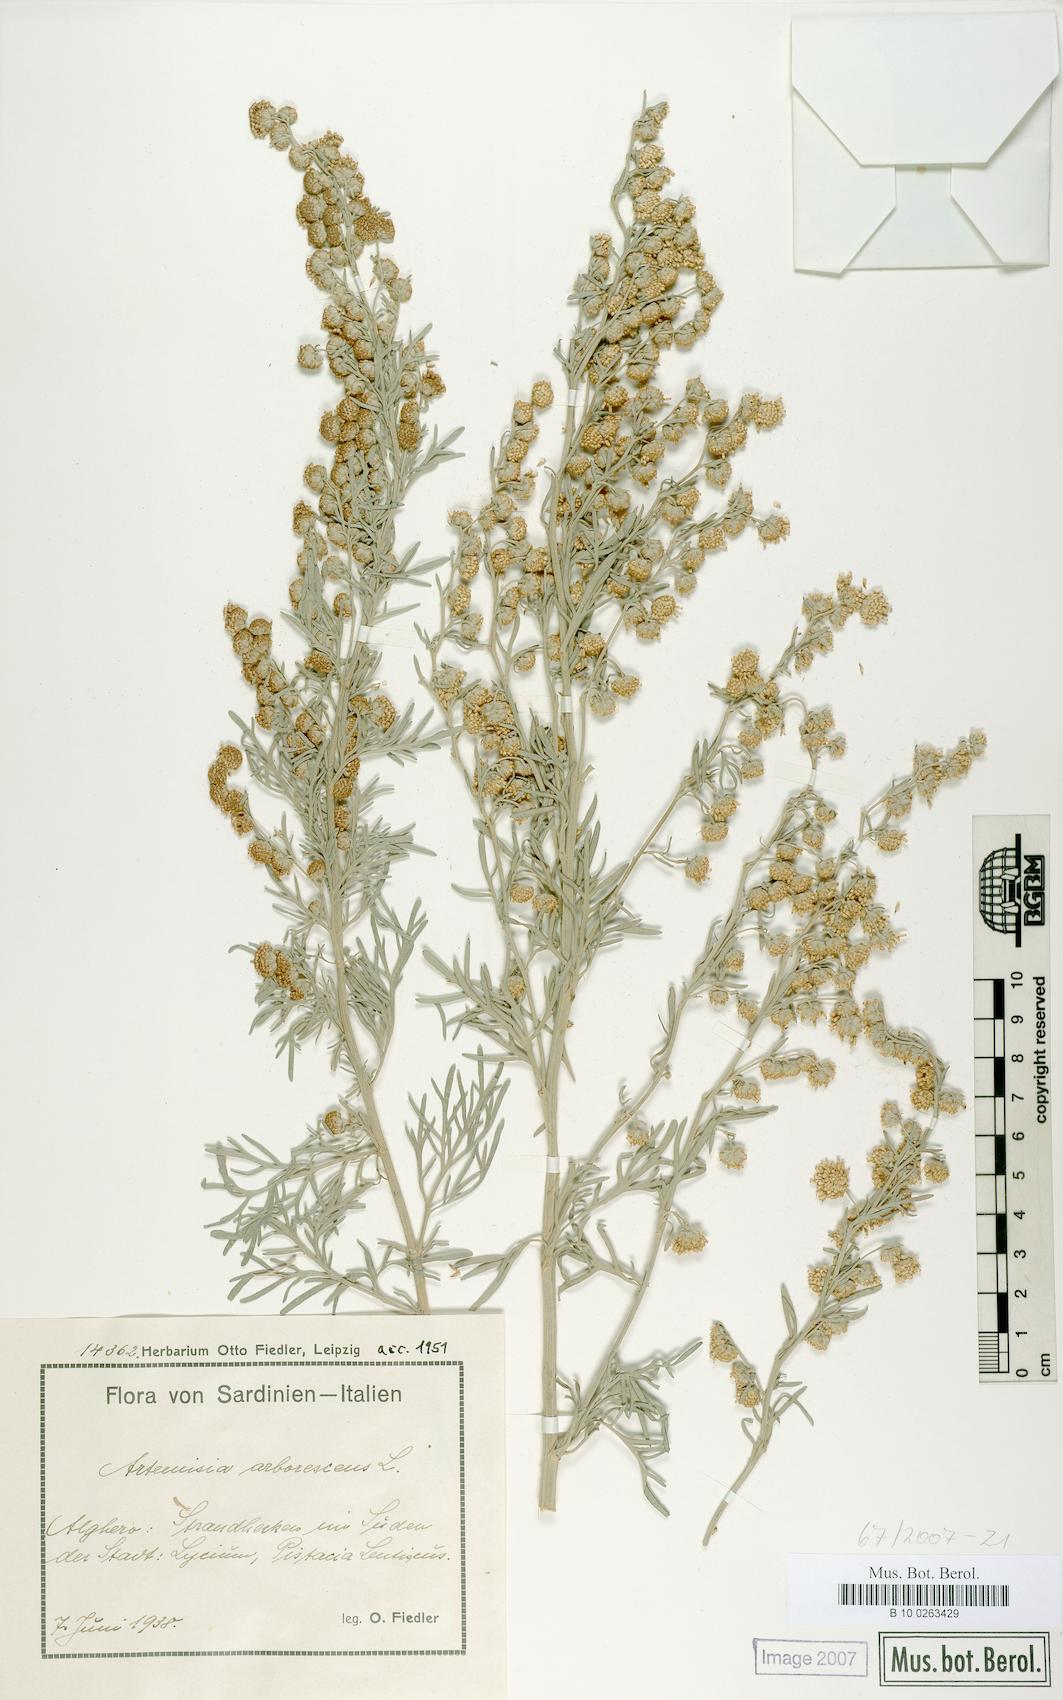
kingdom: Plantae
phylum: Tracheophyta
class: Magnoliopsida
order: Asterales
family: Asteraceae
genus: Artemisia
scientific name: Artemisia arborescens
